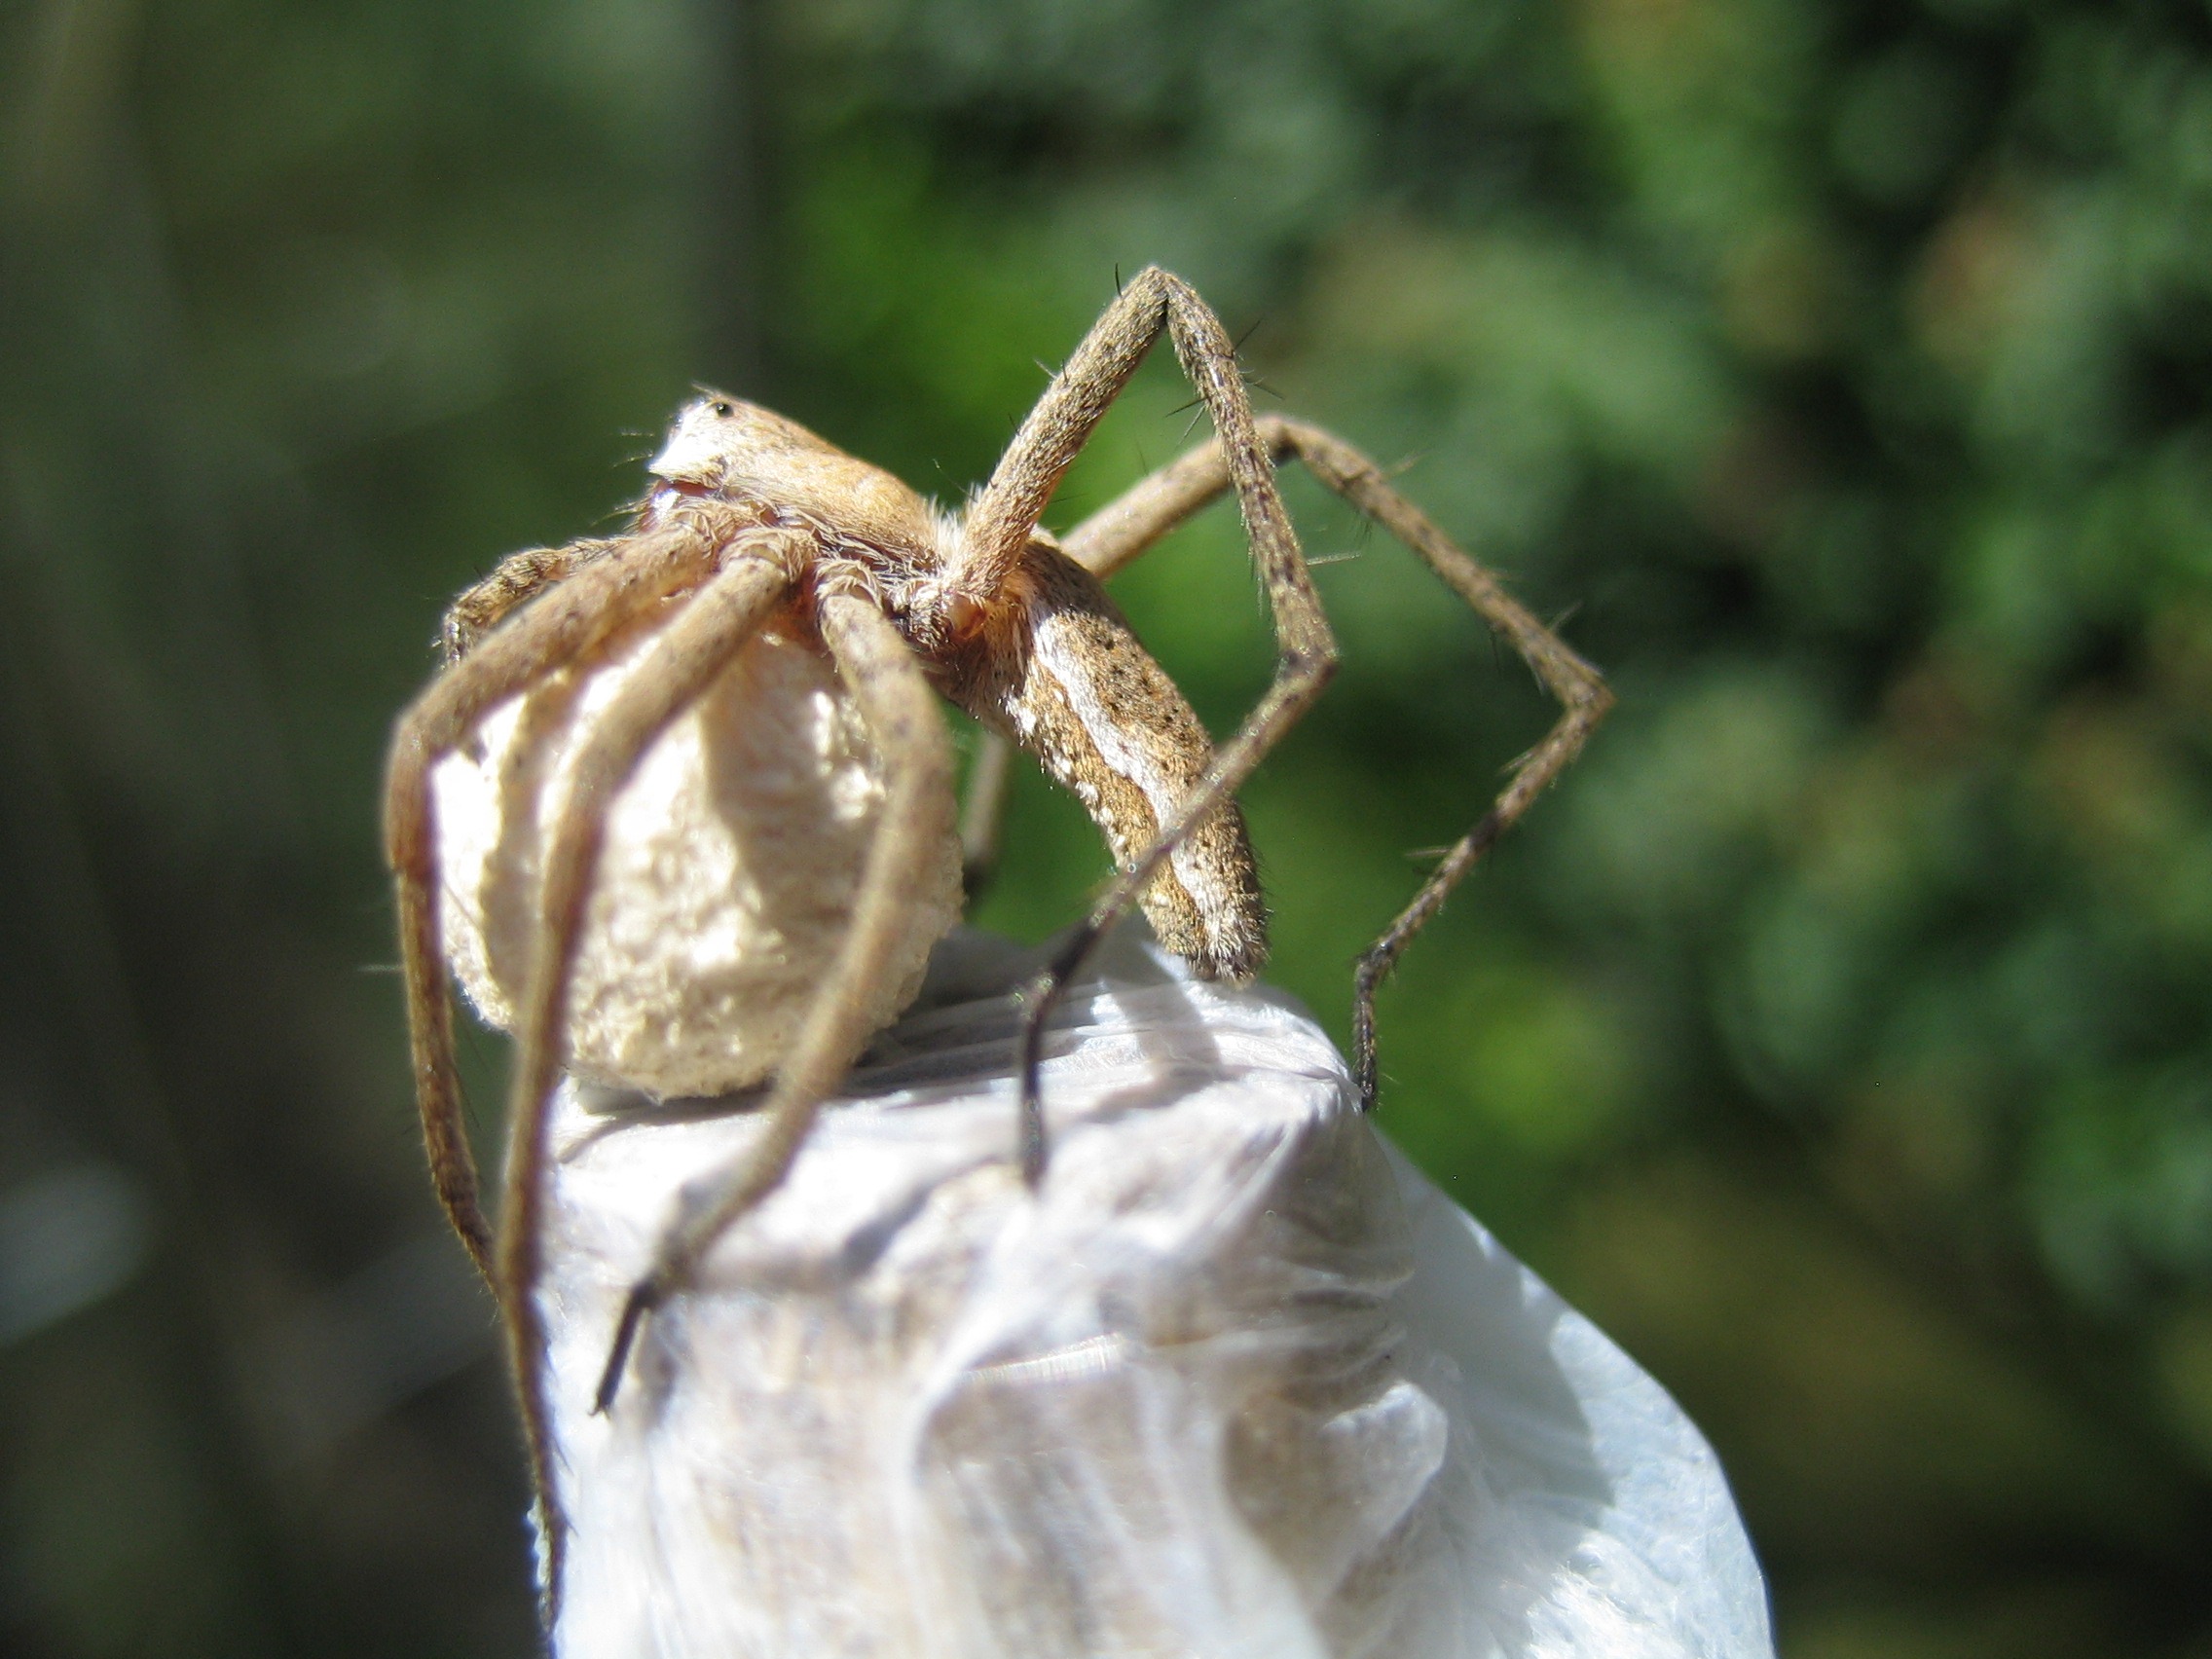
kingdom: Animalia
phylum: Arthropoda
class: Arachnida
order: Araneae
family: Pisauridae
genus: Pisaura
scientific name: Pisaura mirabilis
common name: Almindelig rovedderkop
